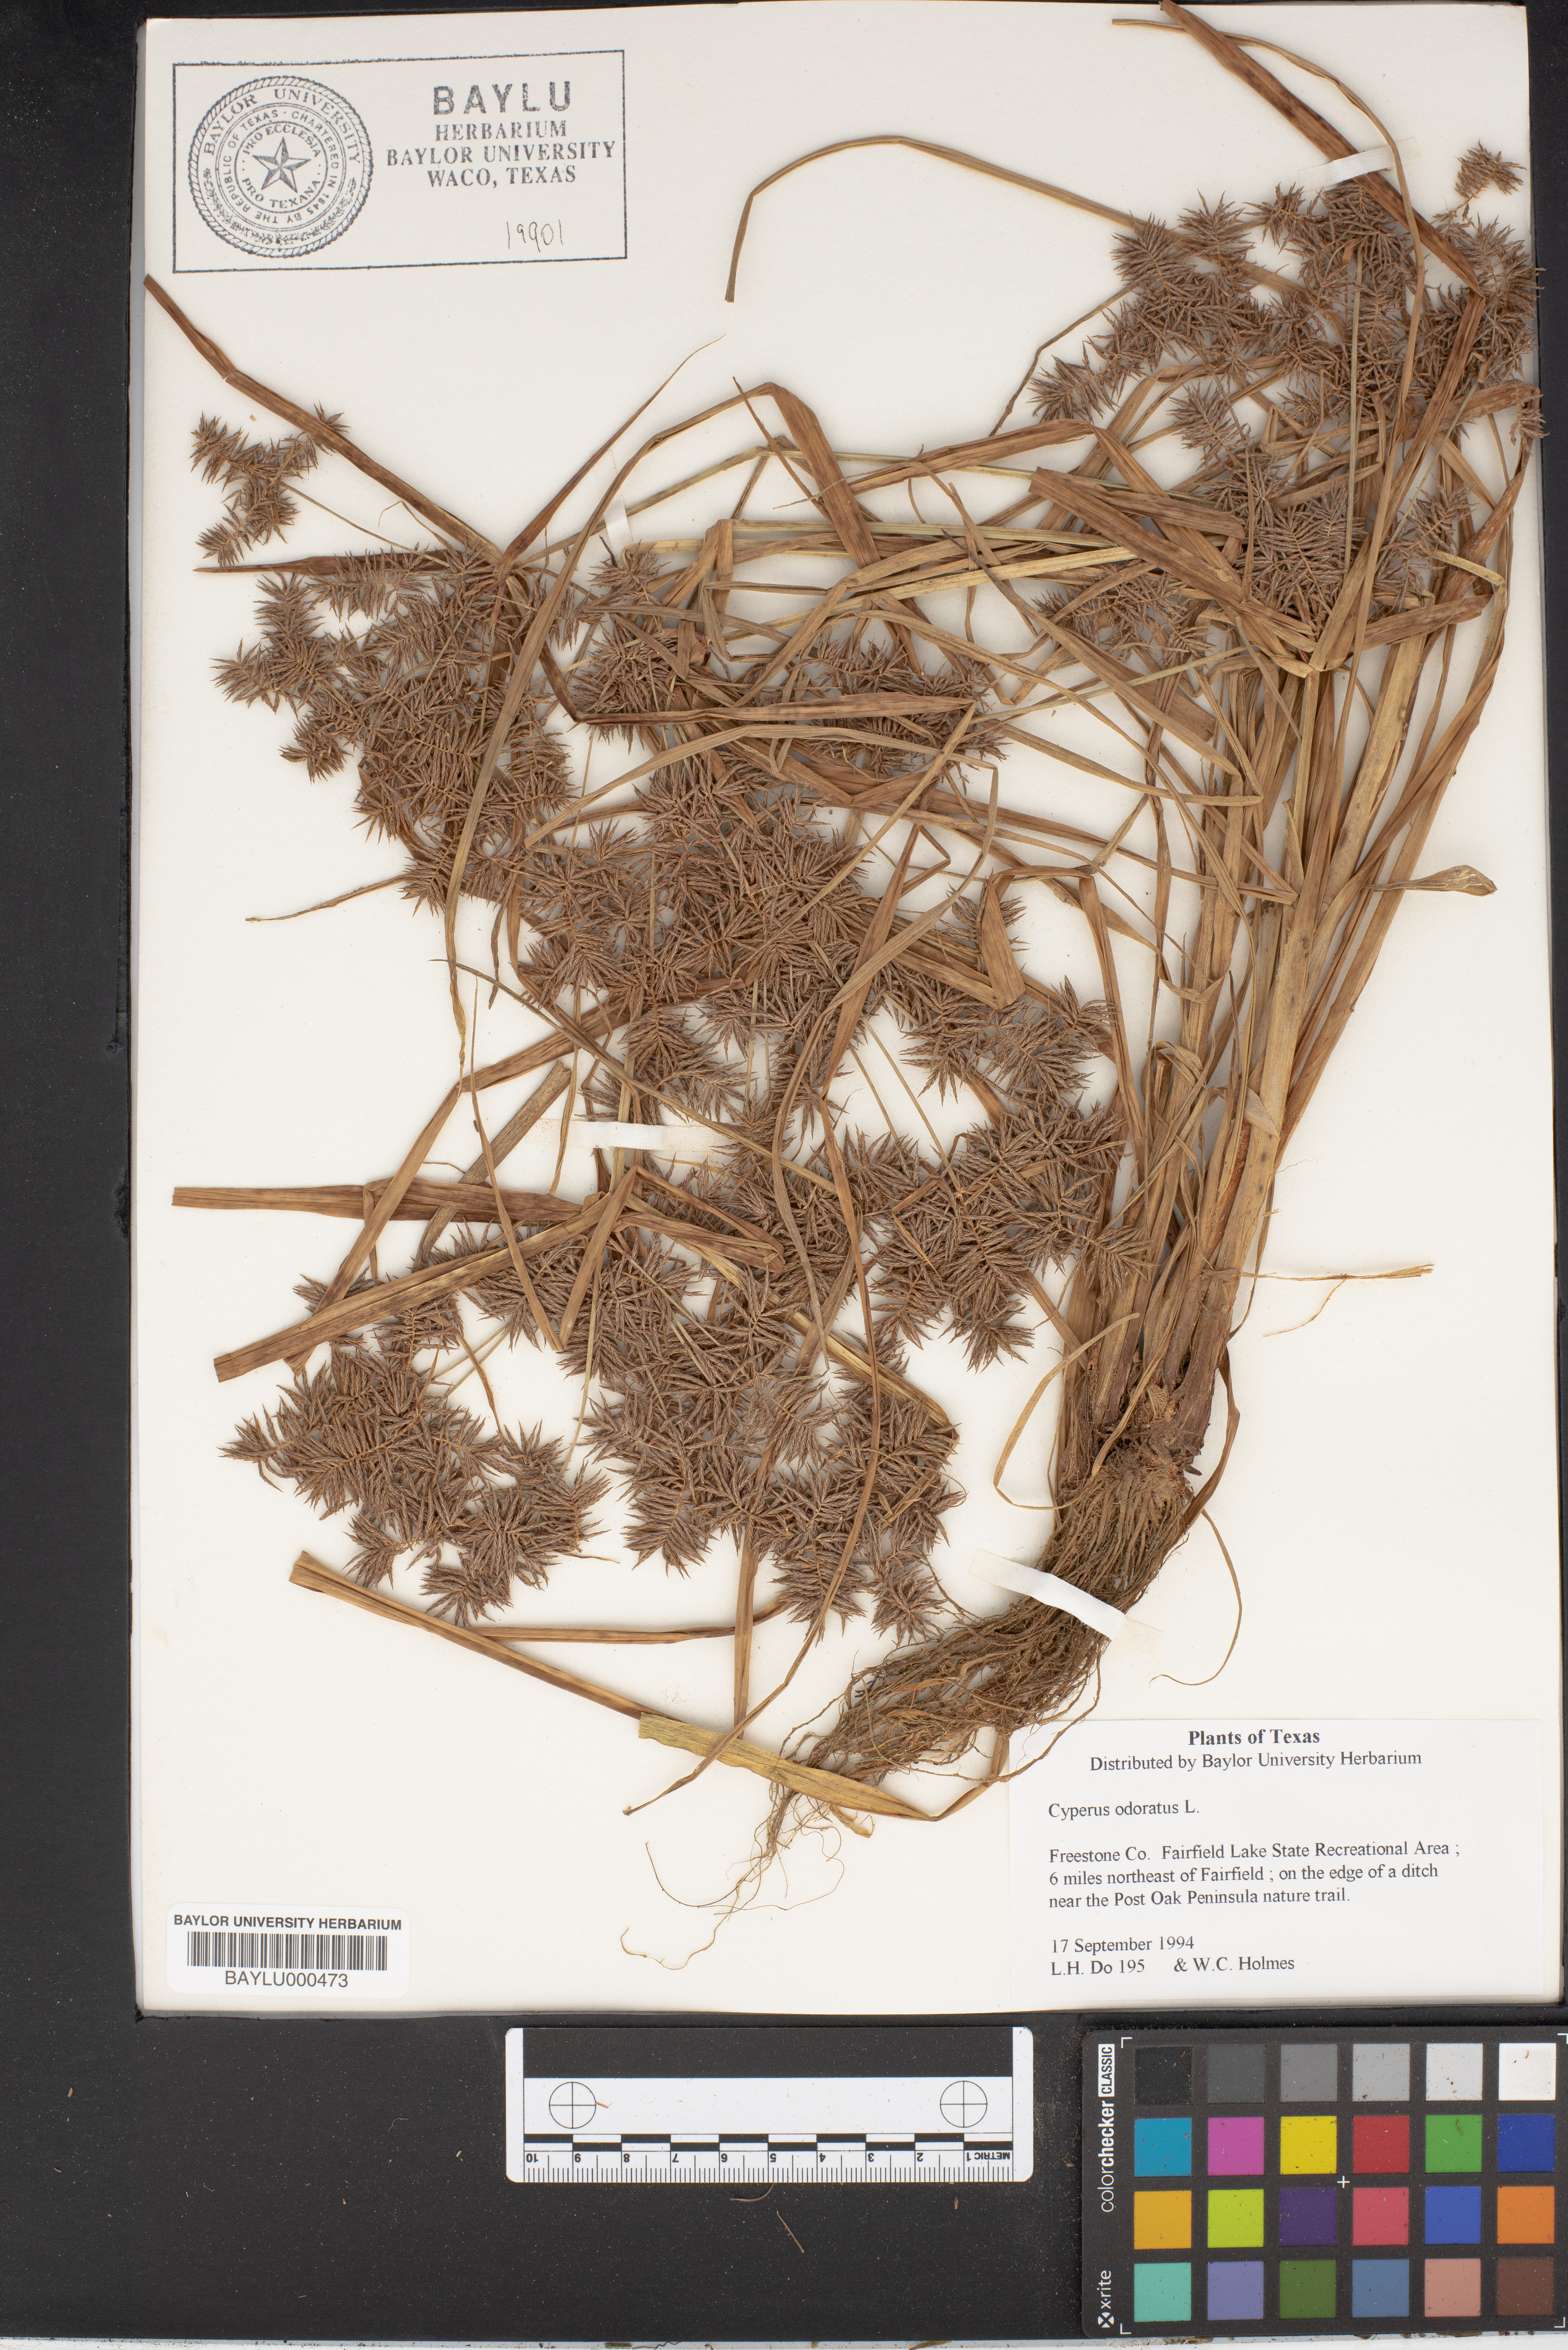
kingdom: Plantae
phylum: Tracheophyta
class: Liliopsida
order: Poales
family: Cyperaceae
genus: Cyperus
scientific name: Cyperus odoratus
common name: Fragrant flatsedge
